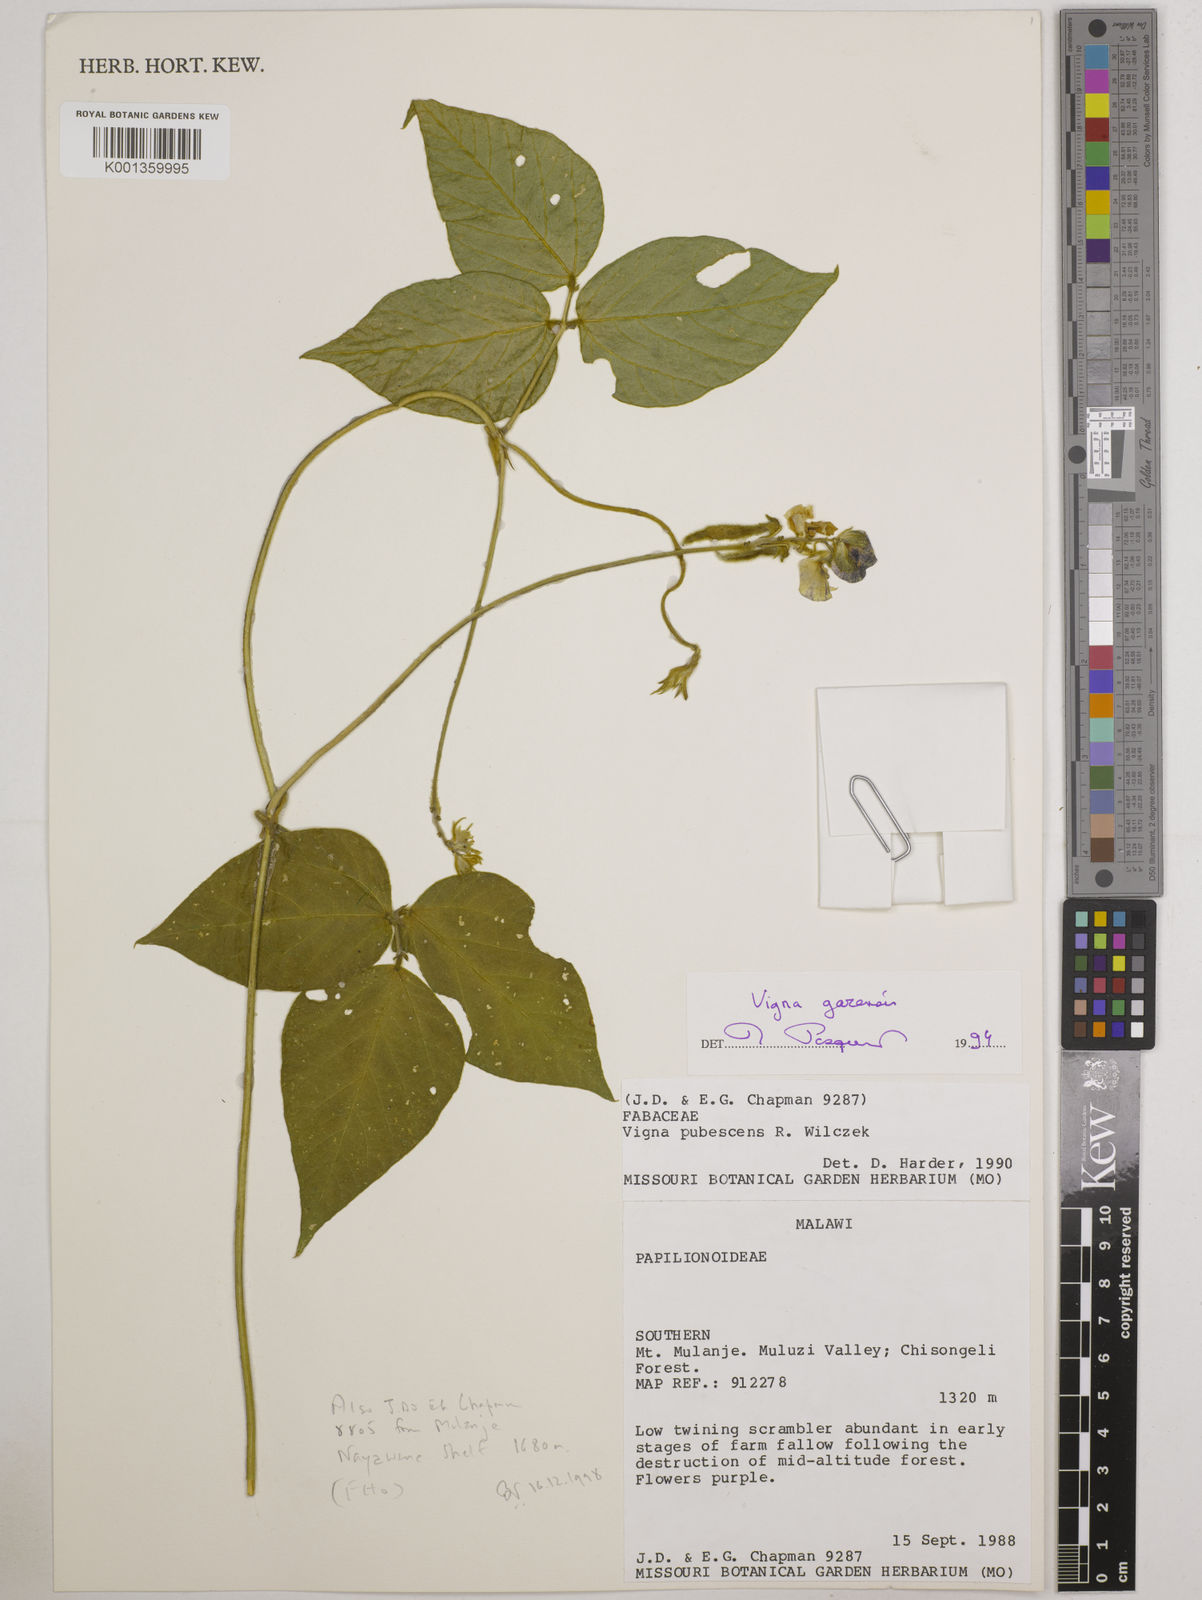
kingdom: Plantae
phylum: Tracheophyta
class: Magnoliopsida
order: Fabales
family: Fabaceae
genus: Vigna
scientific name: Vigna gazensis
